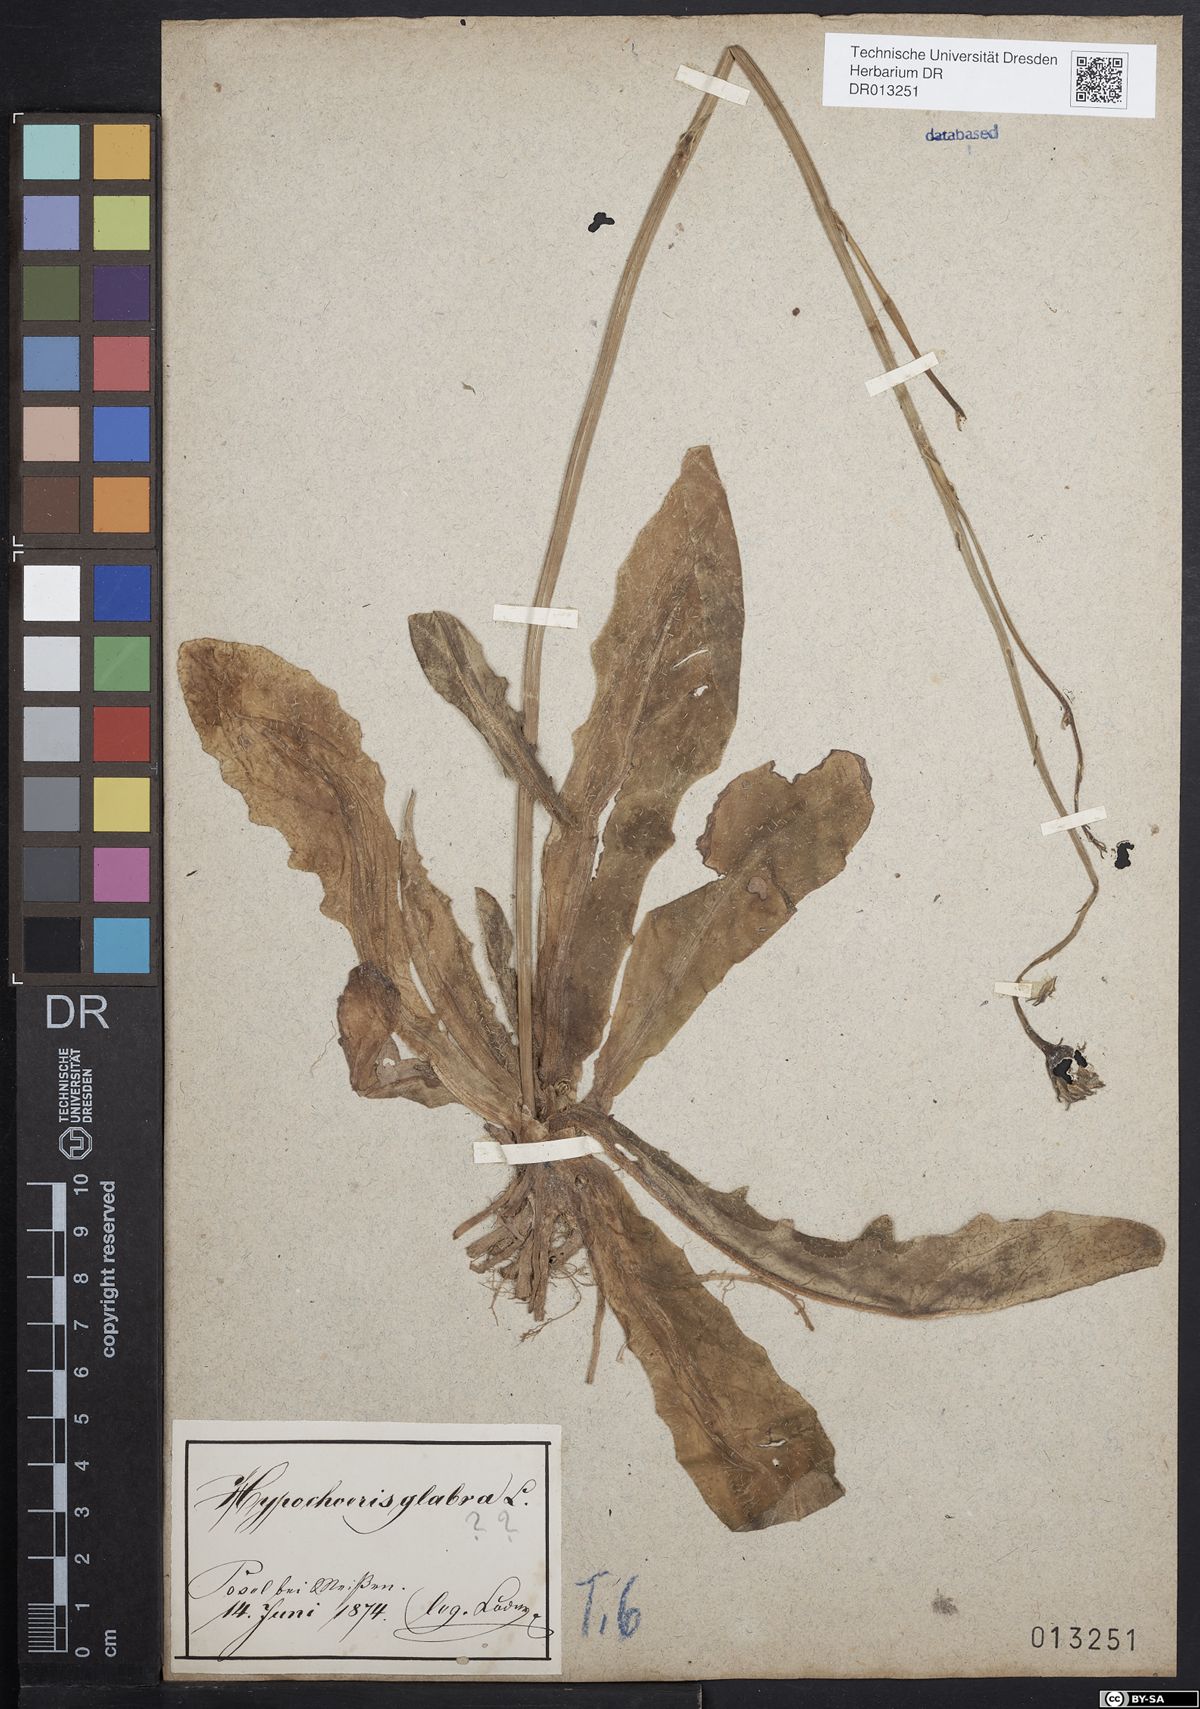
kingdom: Plantae
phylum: Tracheophyta
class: Magnoliopsida
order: Asterales
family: Asteraceae
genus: Hypochaeris
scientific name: Hypochaeris radicata
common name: Flatweed
